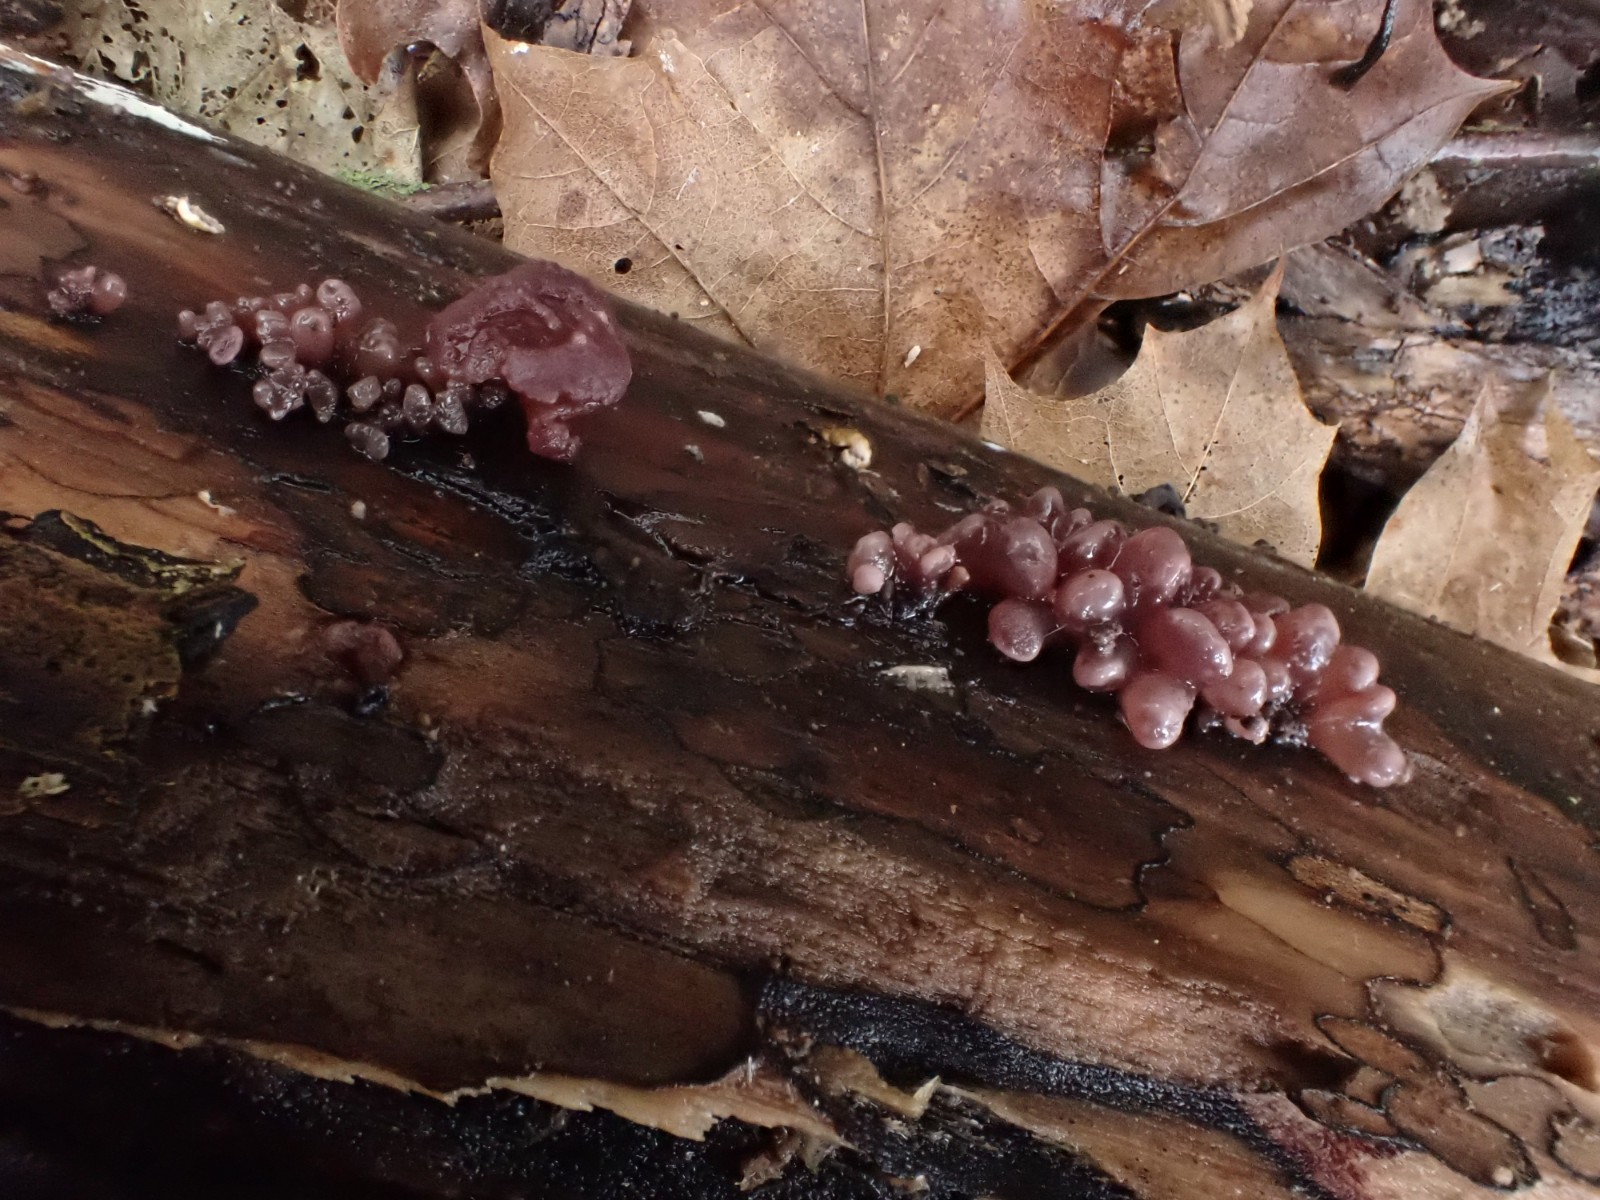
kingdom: Fungi
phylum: Ascomycota
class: Leotiomycetes
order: Helotiales
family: Gelatinodiscaceae
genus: Ascocoryne
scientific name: Ascocoryne sarcoides
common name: rødlilla sejskive
